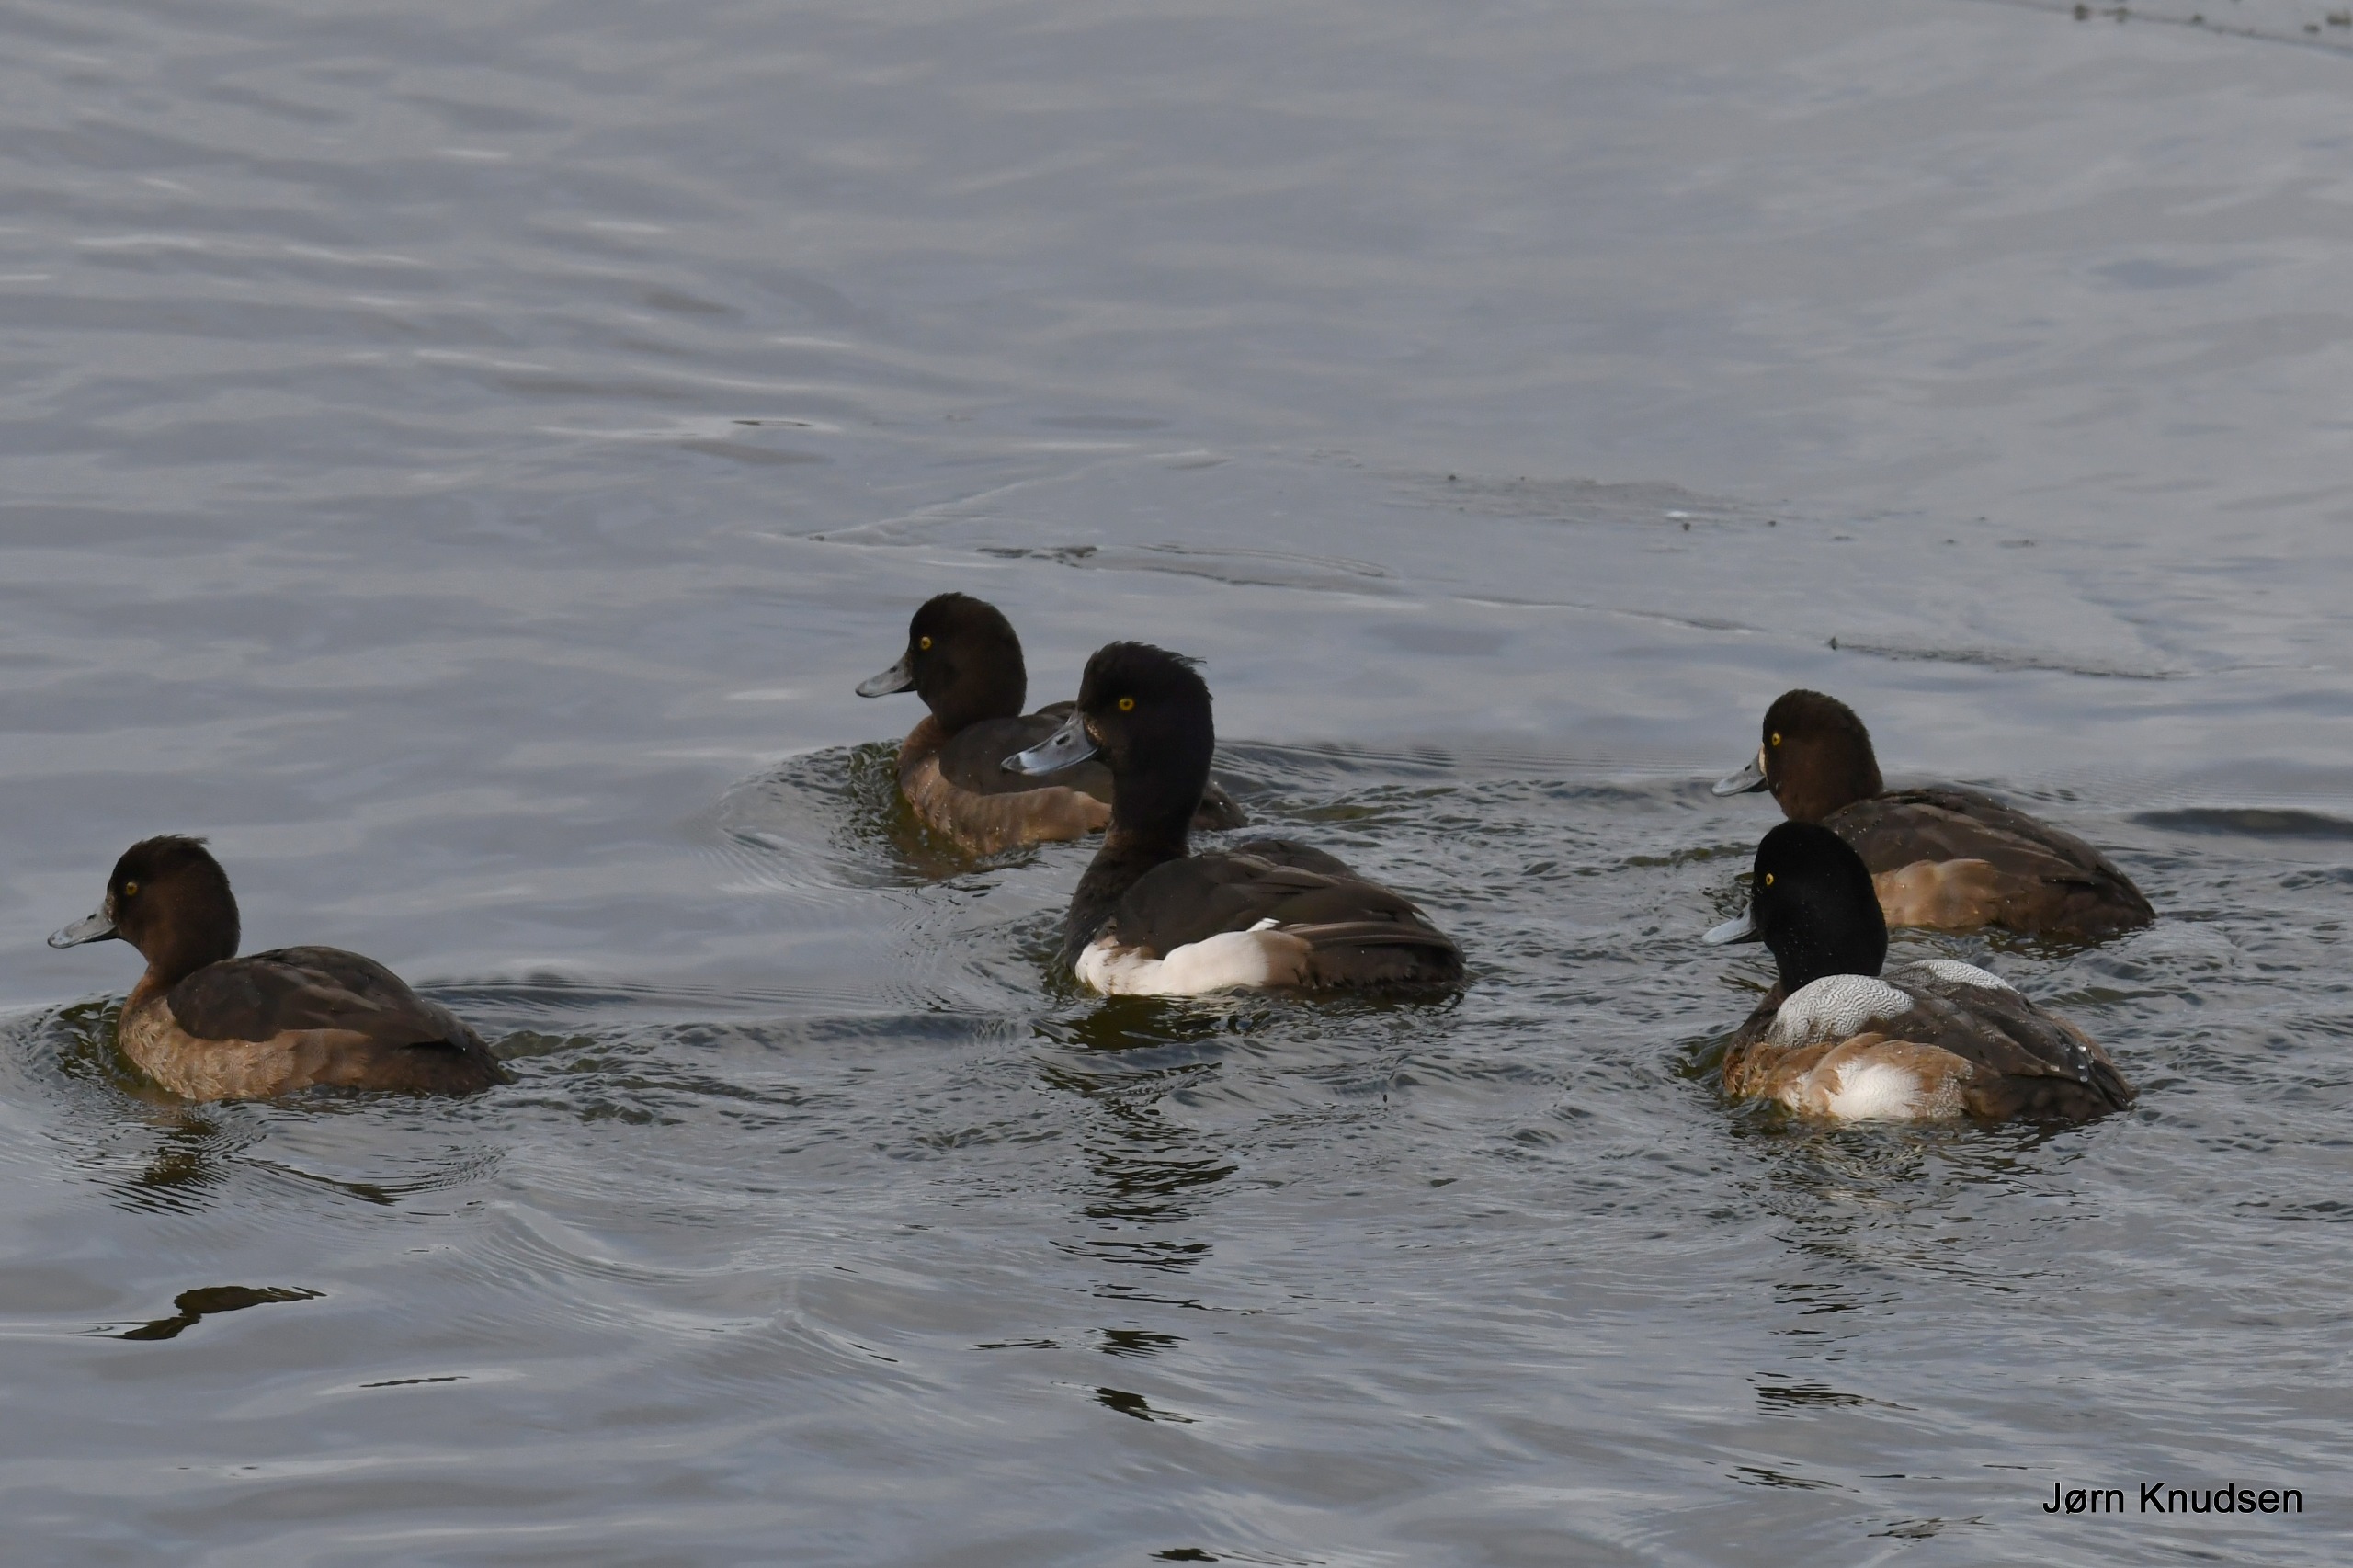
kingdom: Animalia
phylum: Chordata
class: Aves
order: Anseriformes
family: Anatidae
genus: Aythya
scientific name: Aythya fuligula
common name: Troldand
